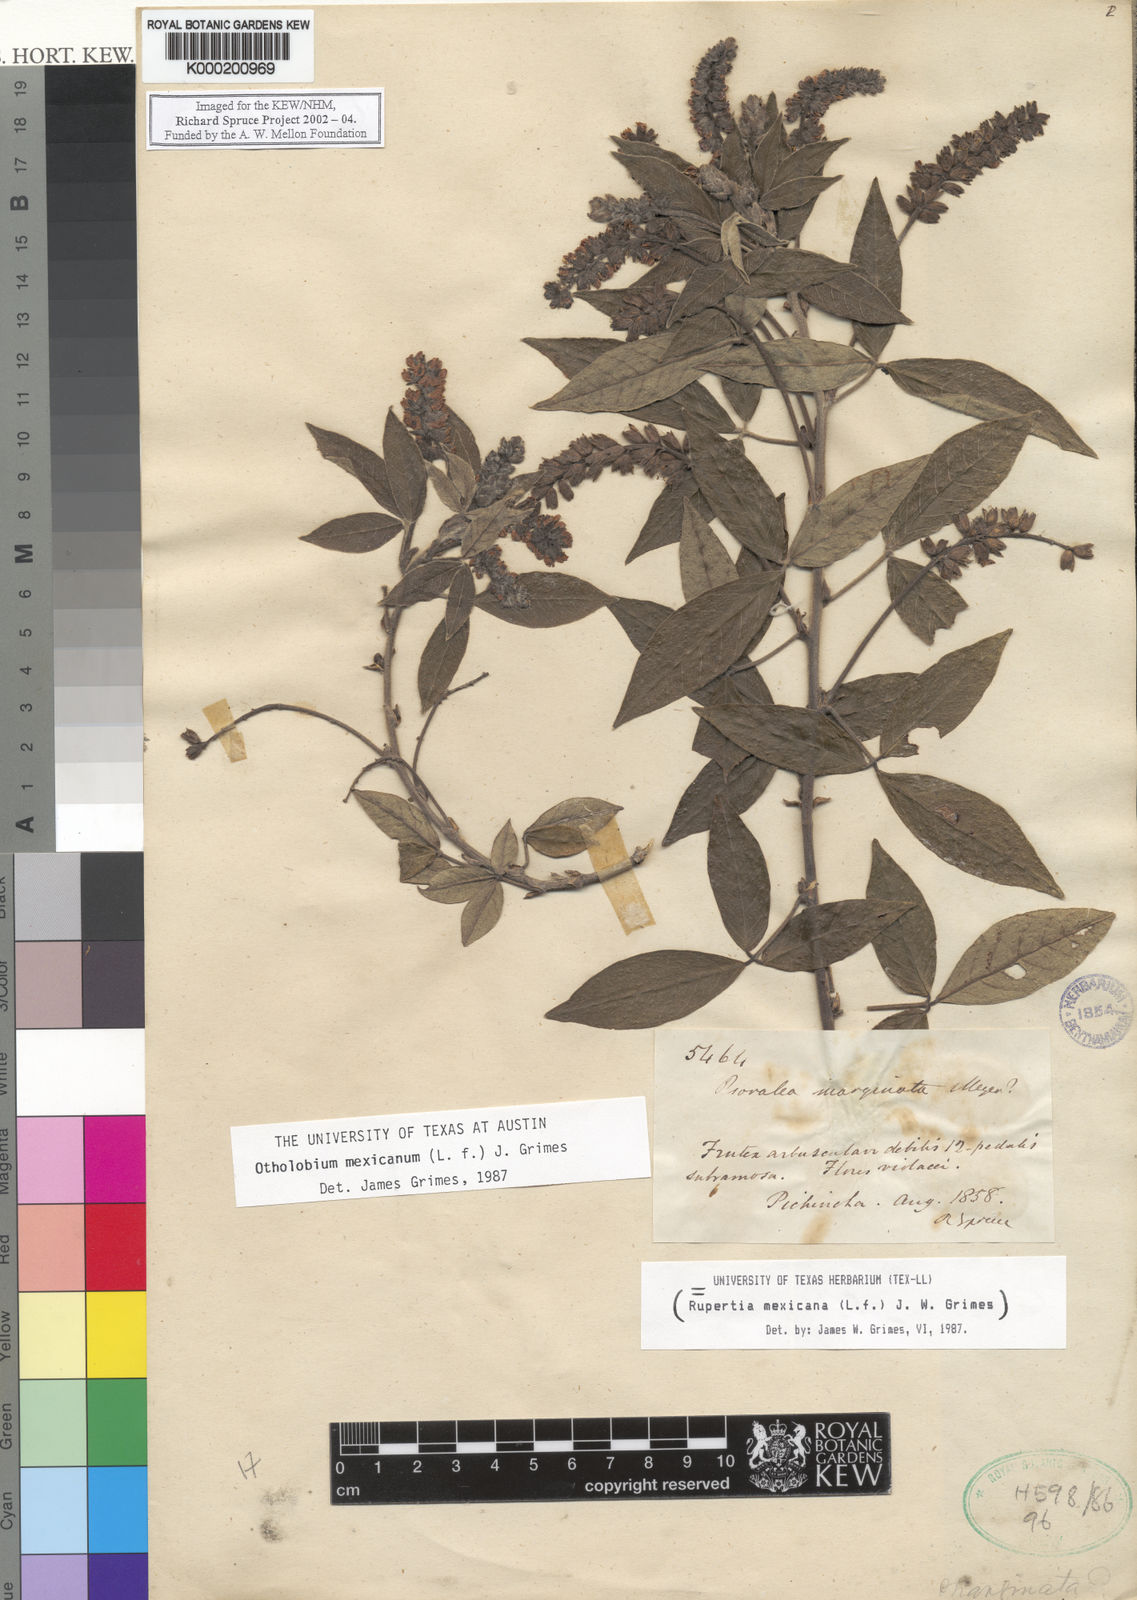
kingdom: Plantae
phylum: Tracheophyta
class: Magnoliopsida
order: Fabales
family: Fabaceae
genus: Psoralea
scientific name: Psoralea Otholobium mexicanum
